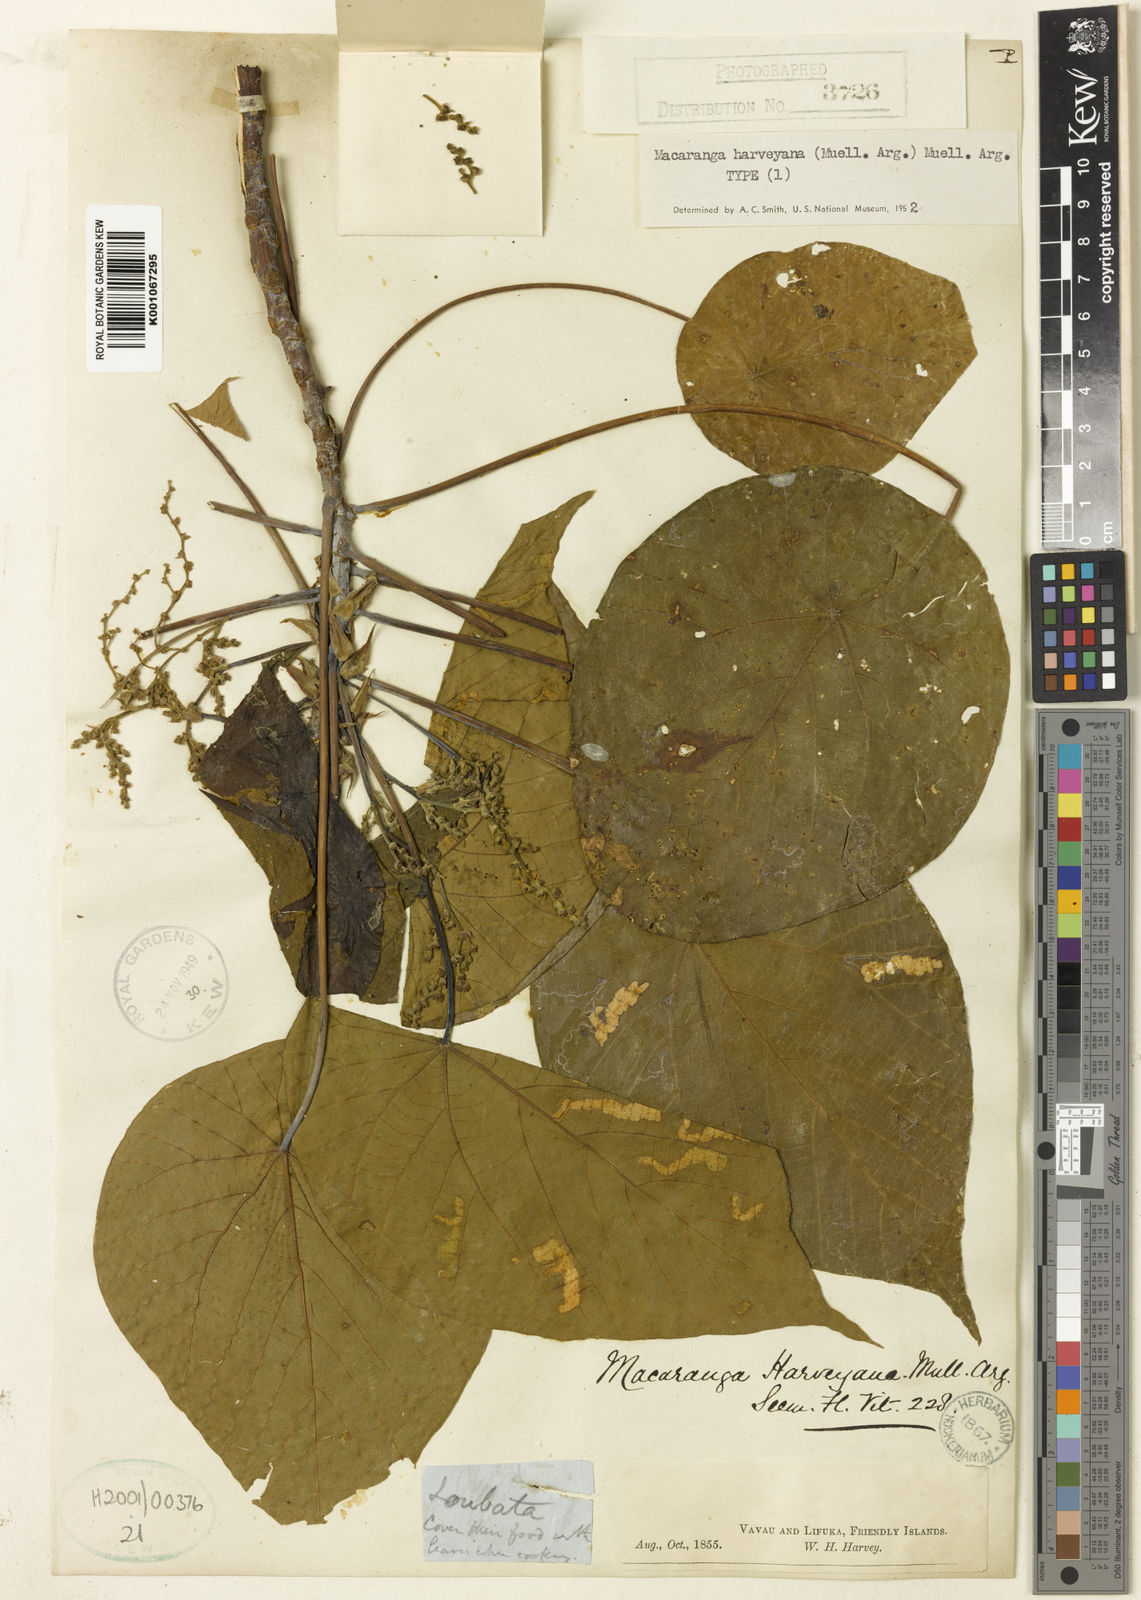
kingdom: Plantae
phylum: Tracheophyta
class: Magnoliopsida
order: Malpighiales
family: Euphorbiaceae
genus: Macaranga
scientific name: Macaranga
